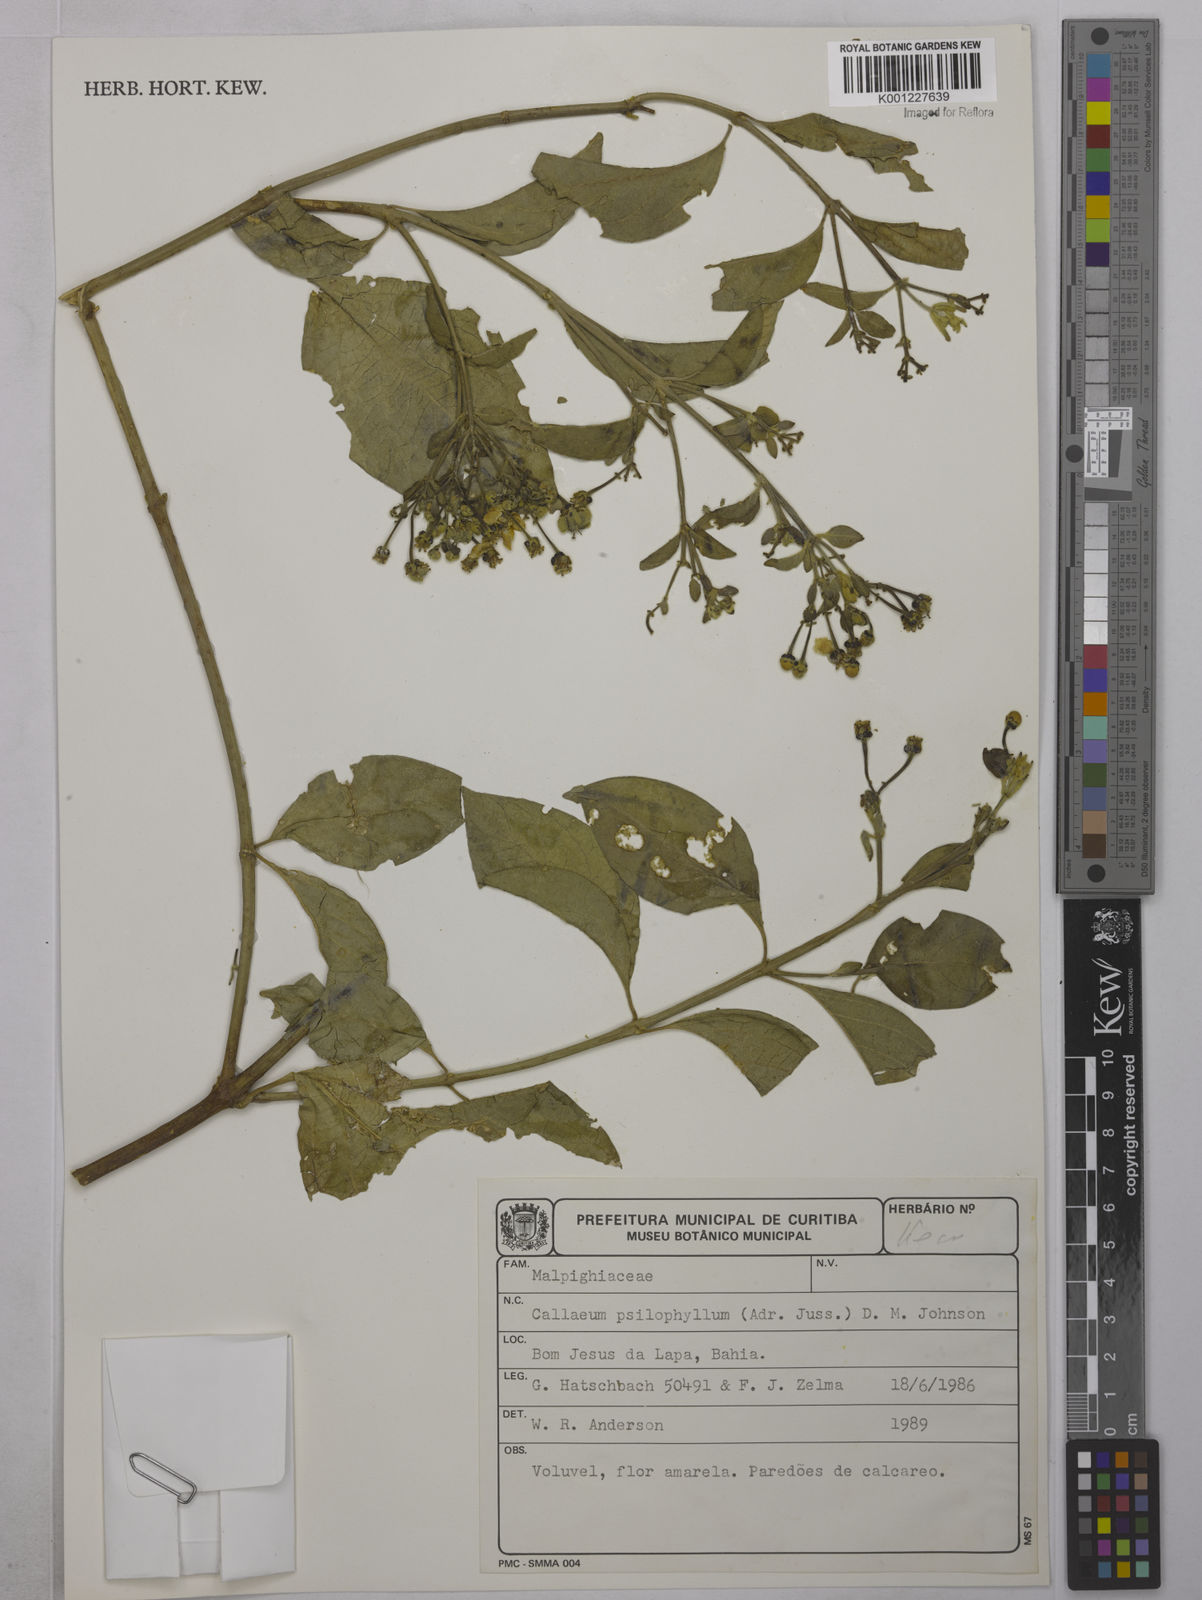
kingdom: Plantae
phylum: Tracheophyta
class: Magnoliopsida
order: Malpighiales
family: Malpighiaceae
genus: Callaeum
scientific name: Callaeum psilophyllum
